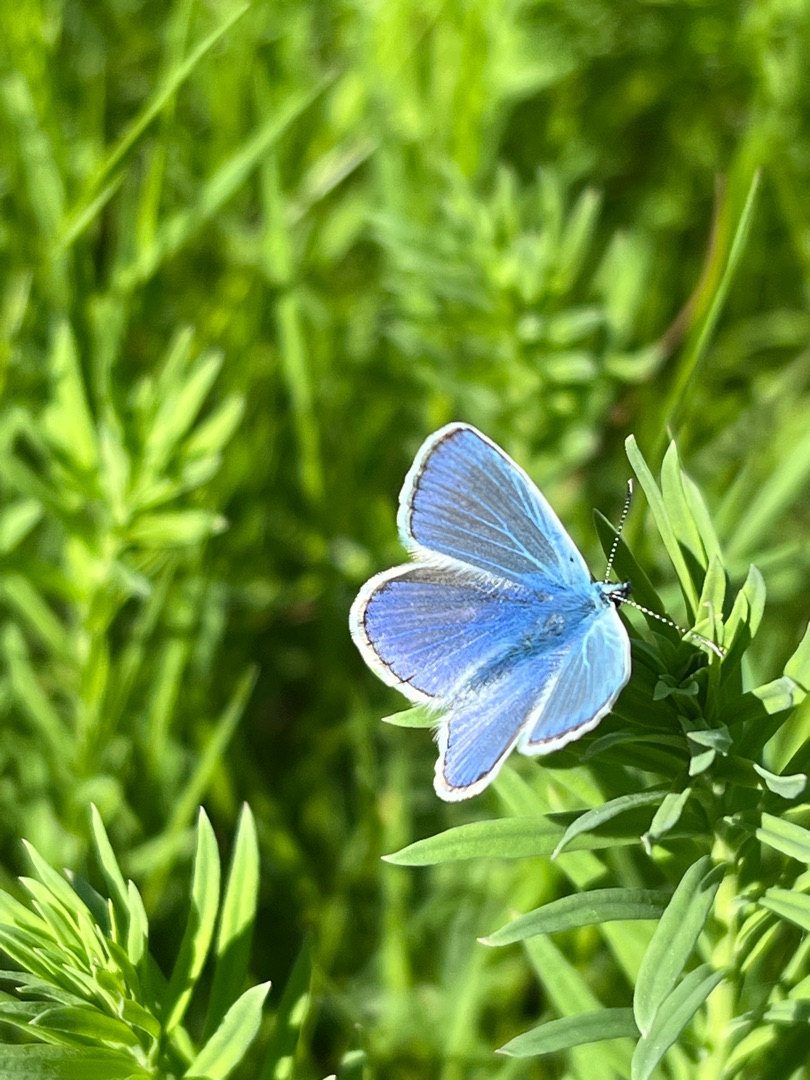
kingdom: Animalia
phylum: Arthropoda
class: Insecta
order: Lepidoptera
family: Lycaenidae
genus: Polyommatus
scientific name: Polyommatus icarus
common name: Almindelig blåfugl
